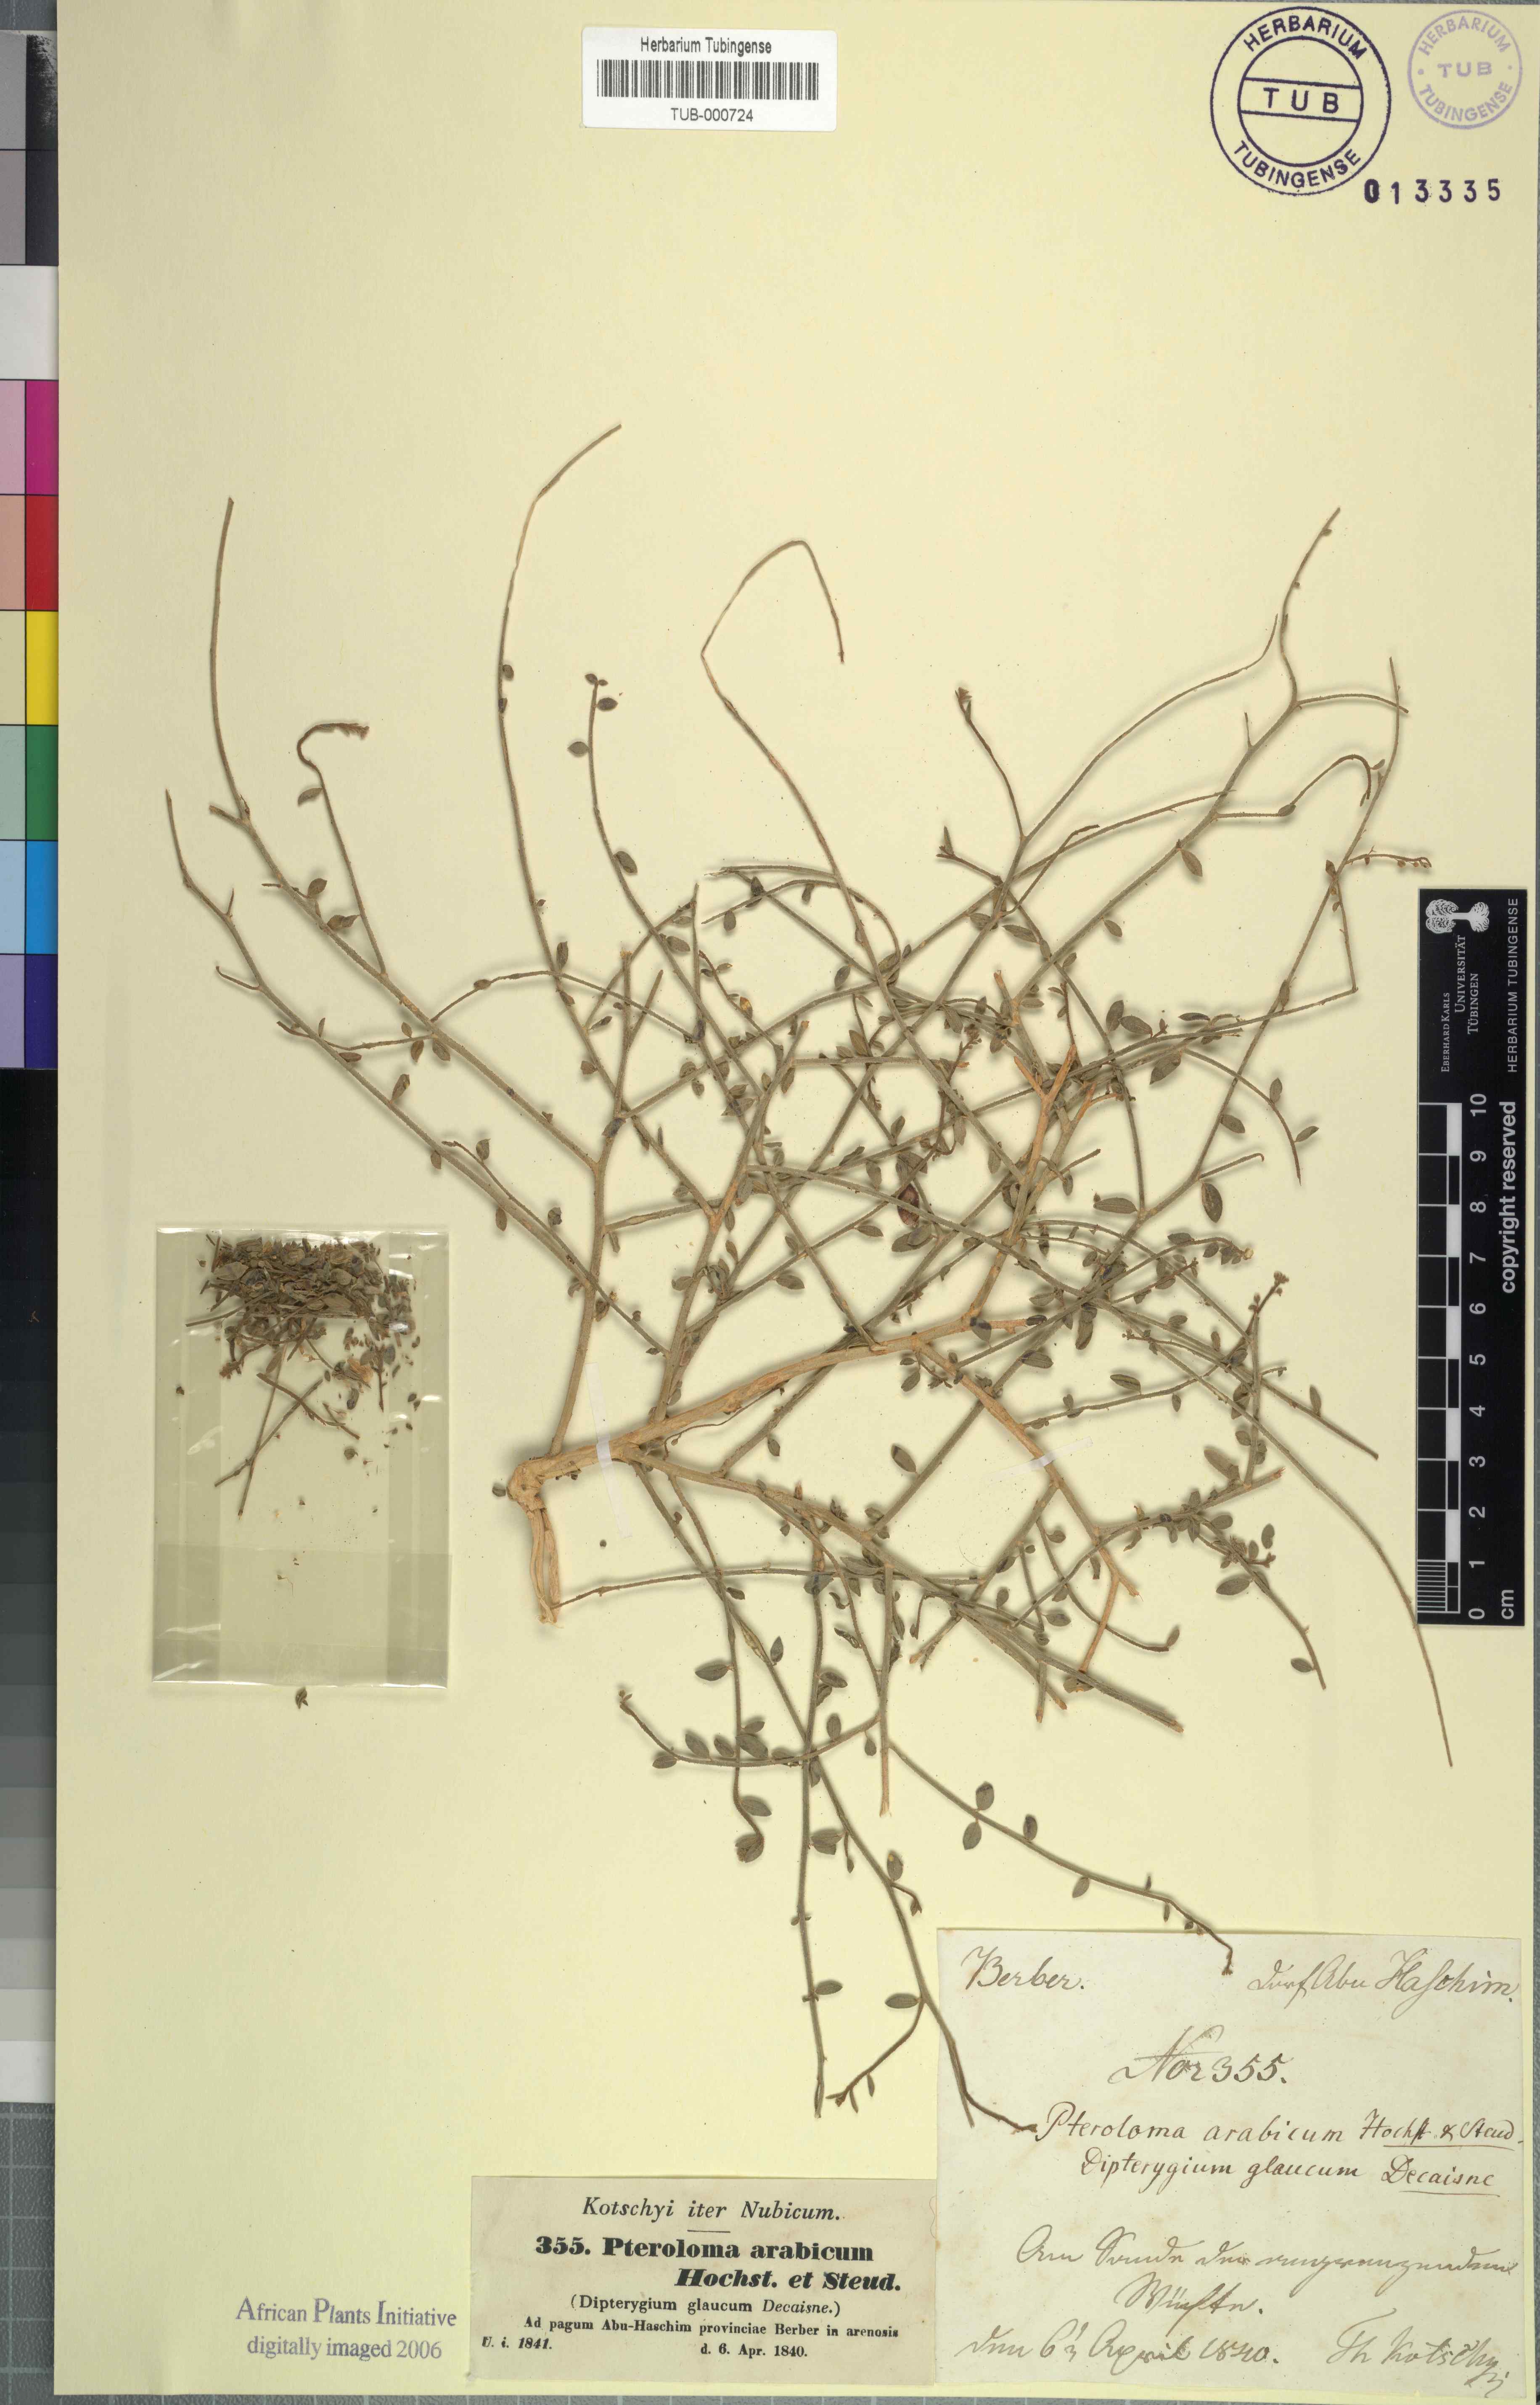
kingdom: Plantae
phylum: Tracheophyta
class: Magnoliopsida
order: Brassicales
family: Cleomaceae
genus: Dipterygium
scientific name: Dipterygium glaucum
